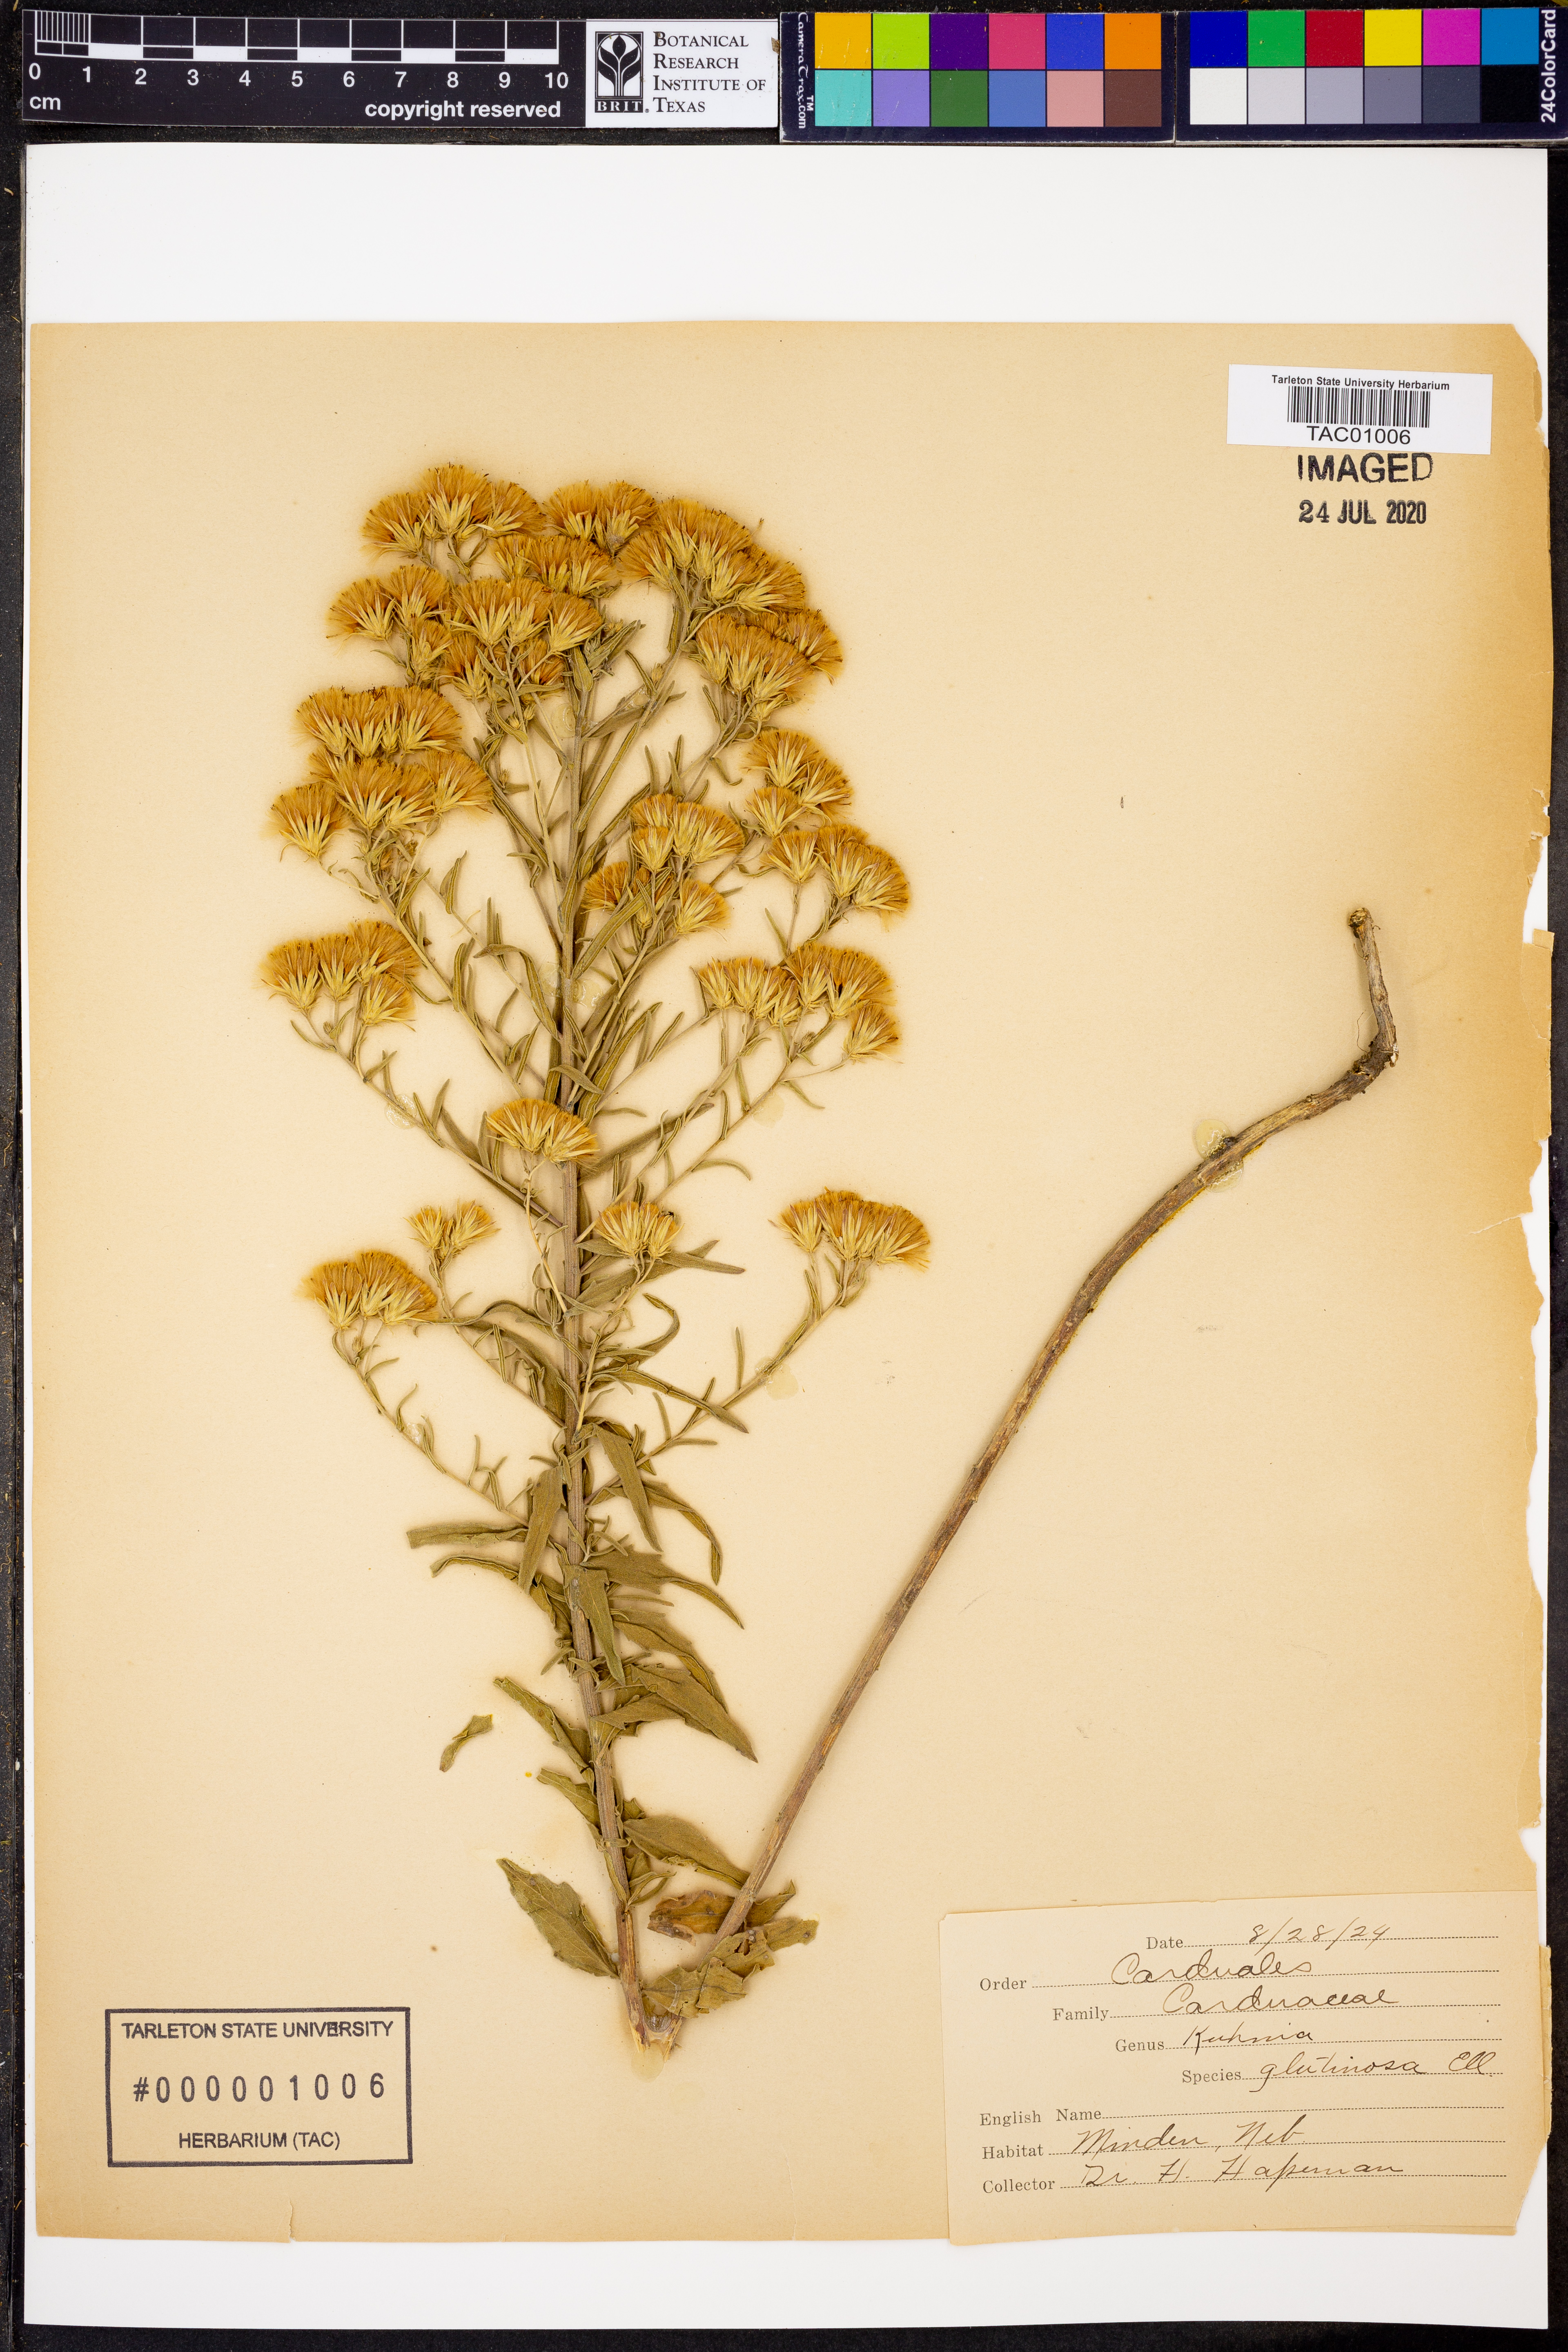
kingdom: Plantae
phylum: Tracheophyta
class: Magnoliopsida
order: Asterales
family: Asteraceae
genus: Brickellia
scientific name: Brickellia eupatorioides
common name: False boneset
